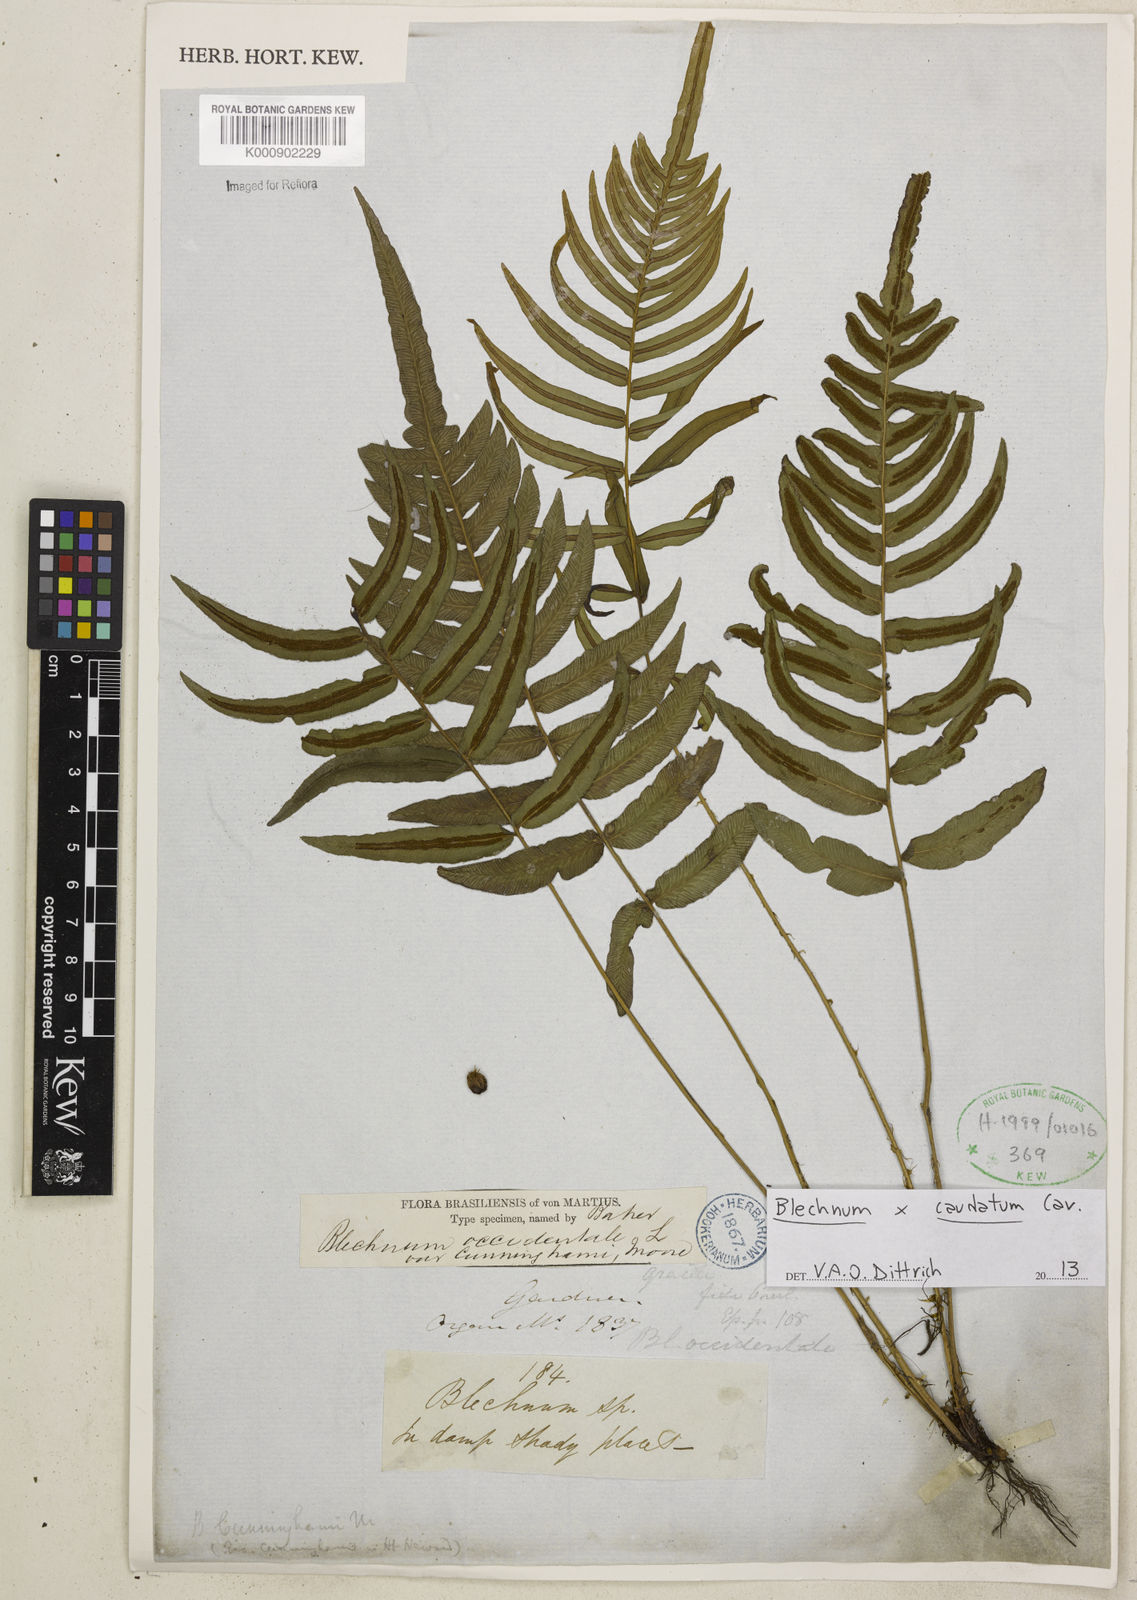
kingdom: Plantae
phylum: Tracheophyta
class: Polypodiopsida
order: Polypodiales
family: Blechnaceae
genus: Blechnum
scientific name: Blechnum gracile
